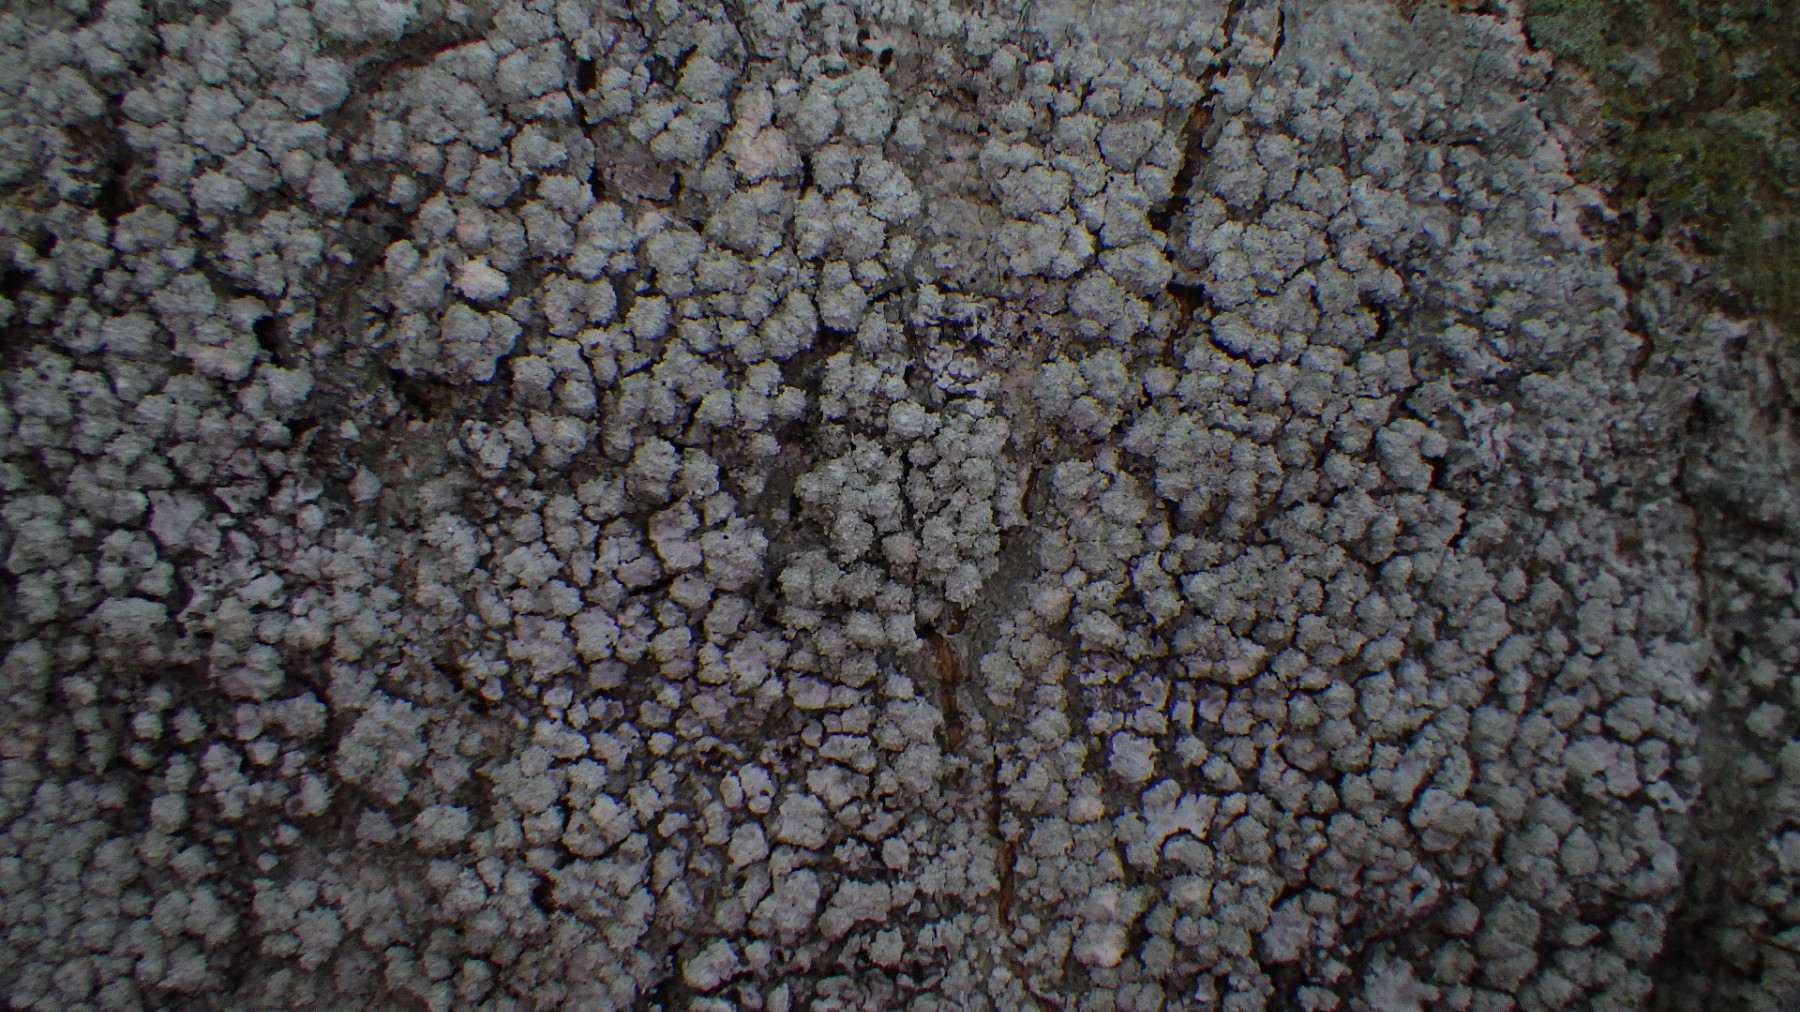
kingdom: Fungi
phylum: Ascomycota
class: Lecanoromycetes
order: Pertusariales
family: Pertusariaceae
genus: Lepra
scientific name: Lepra amara
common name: bitter prikvortelav
